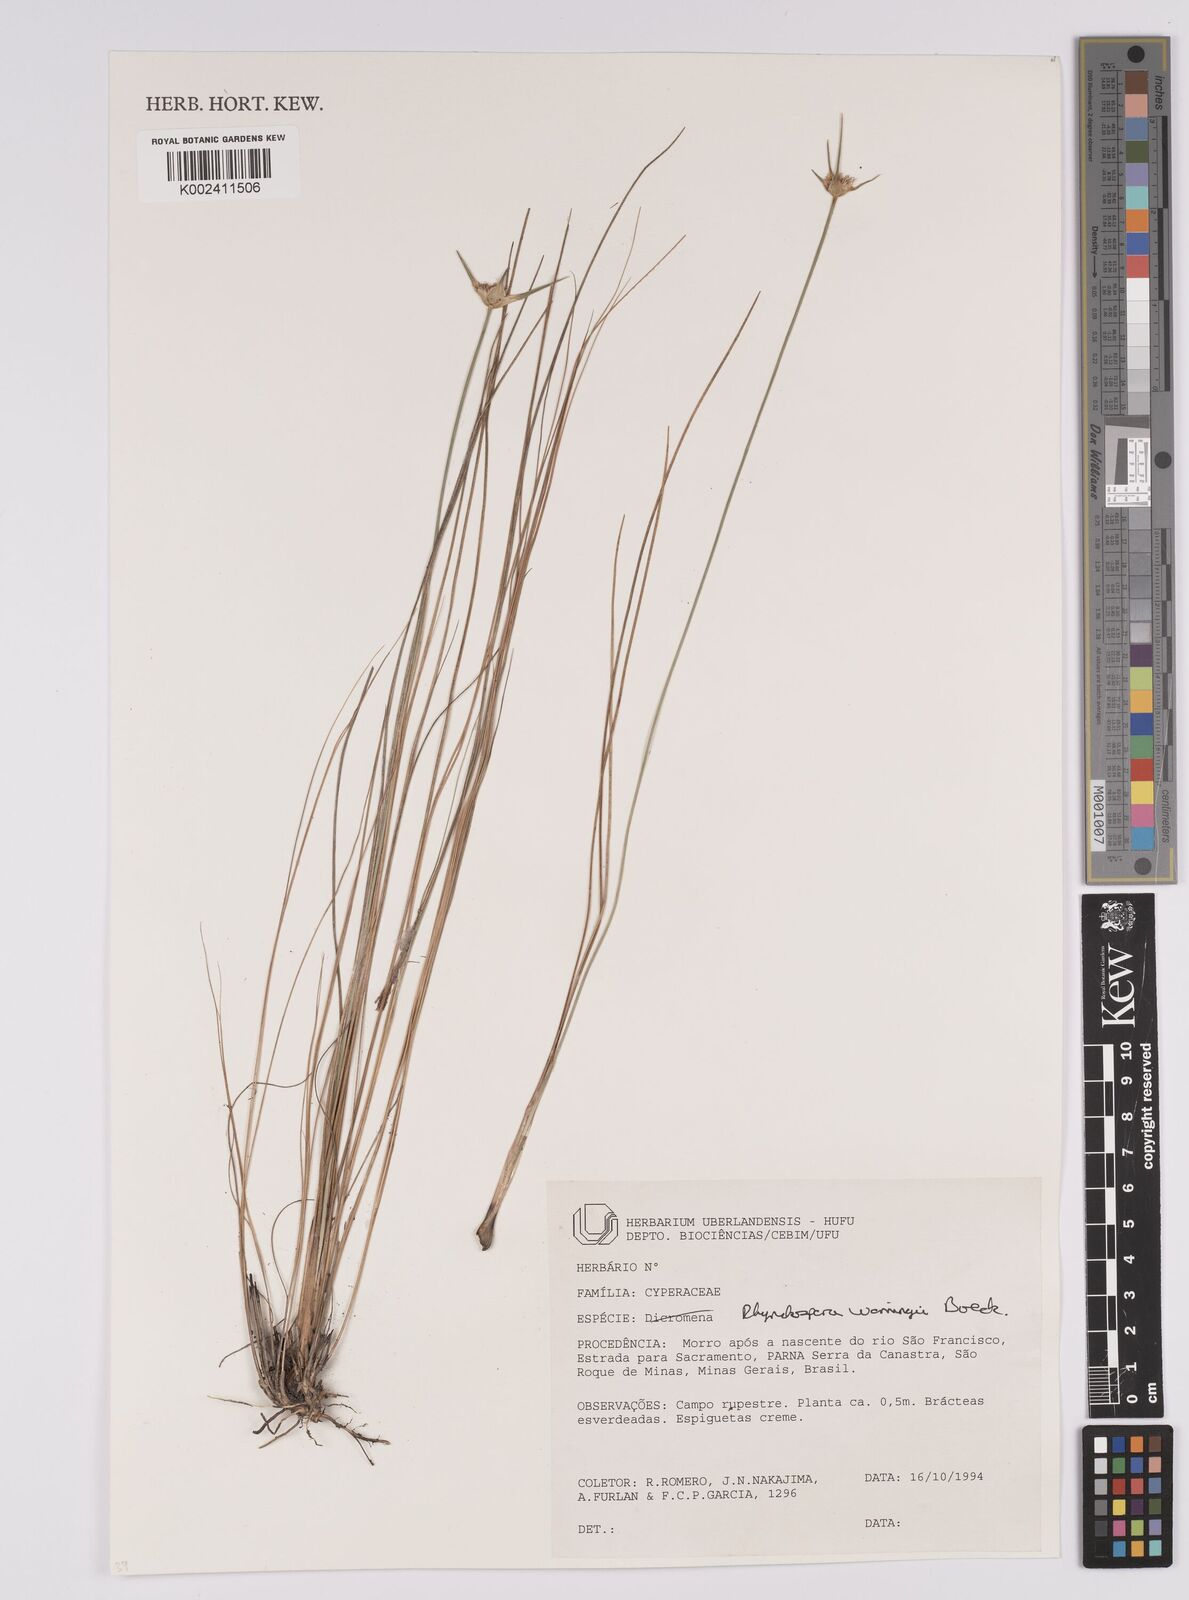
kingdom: Plantae
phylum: Tracheophyta
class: Liliopsida
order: Poales
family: Cyperaceae
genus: Rhynchospora
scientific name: Rhynchospora warmingii
